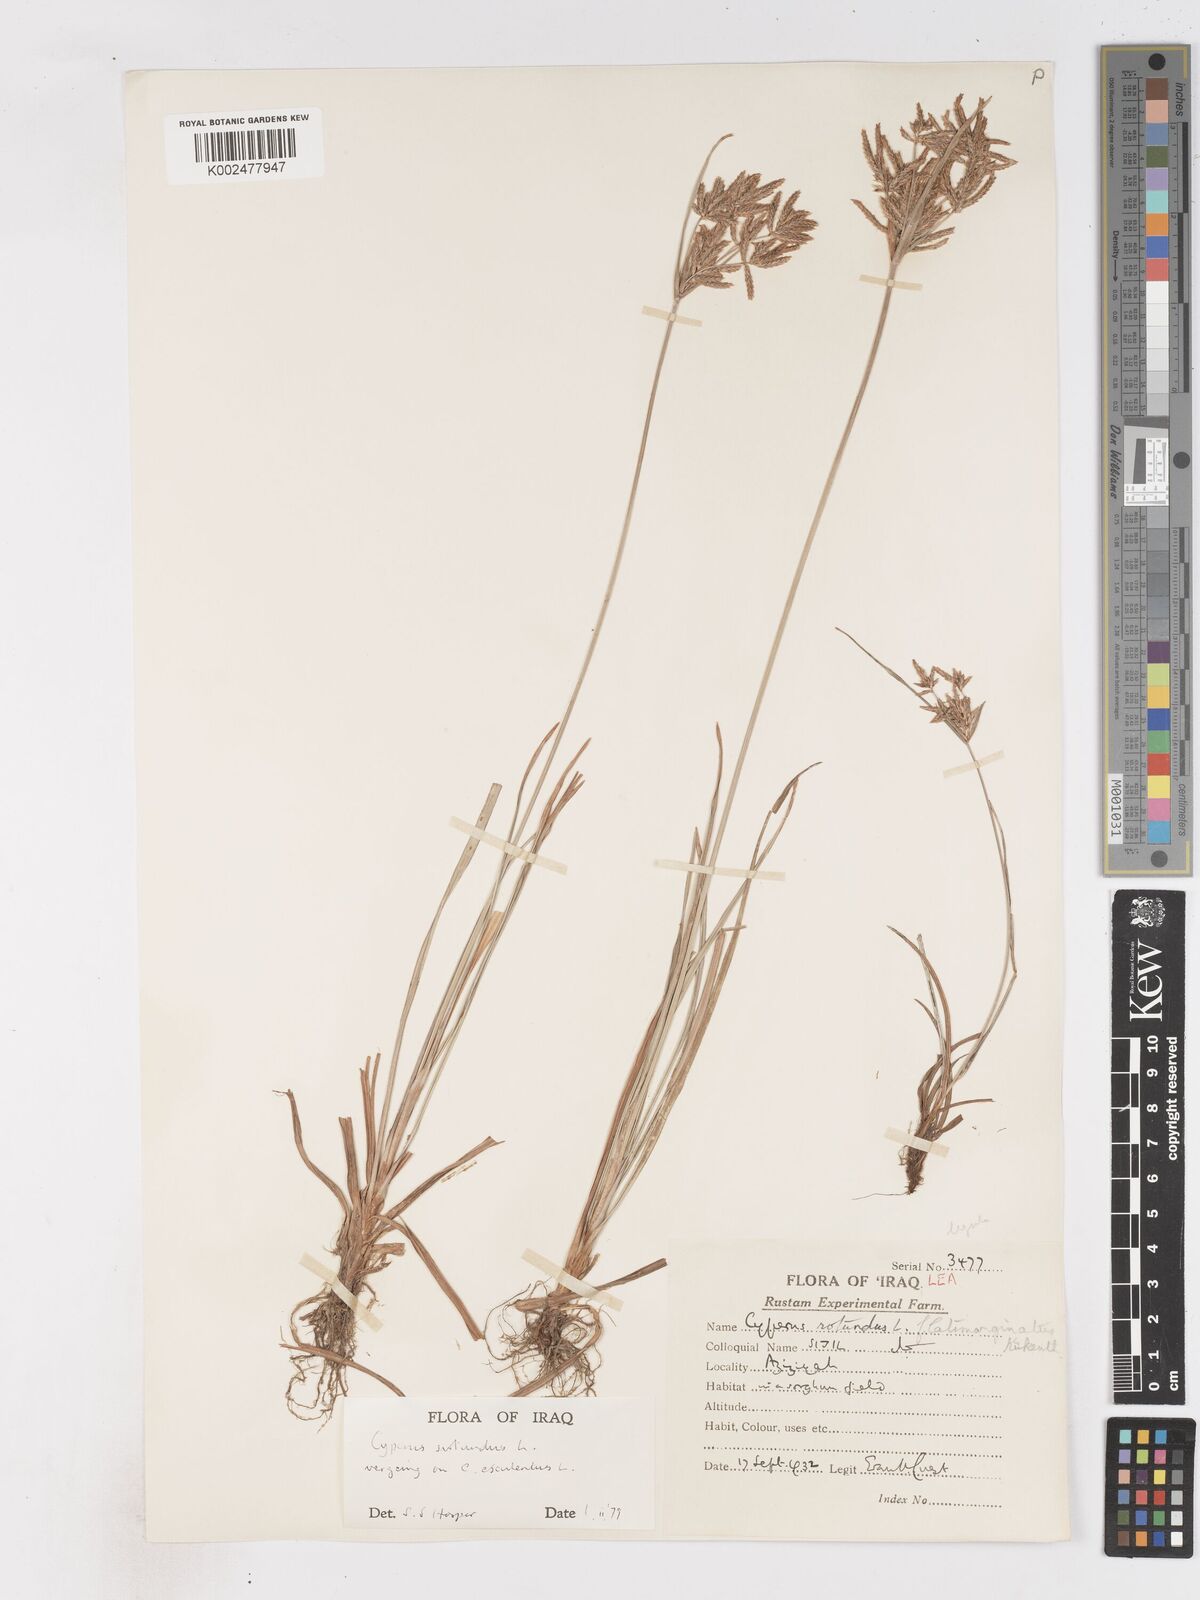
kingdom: Plantae
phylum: Tracheophyta
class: Liliopsida
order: Poales
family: Cyperaceae
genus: Cyperus
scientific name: Cyperus rotundus
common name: Nutgrass
